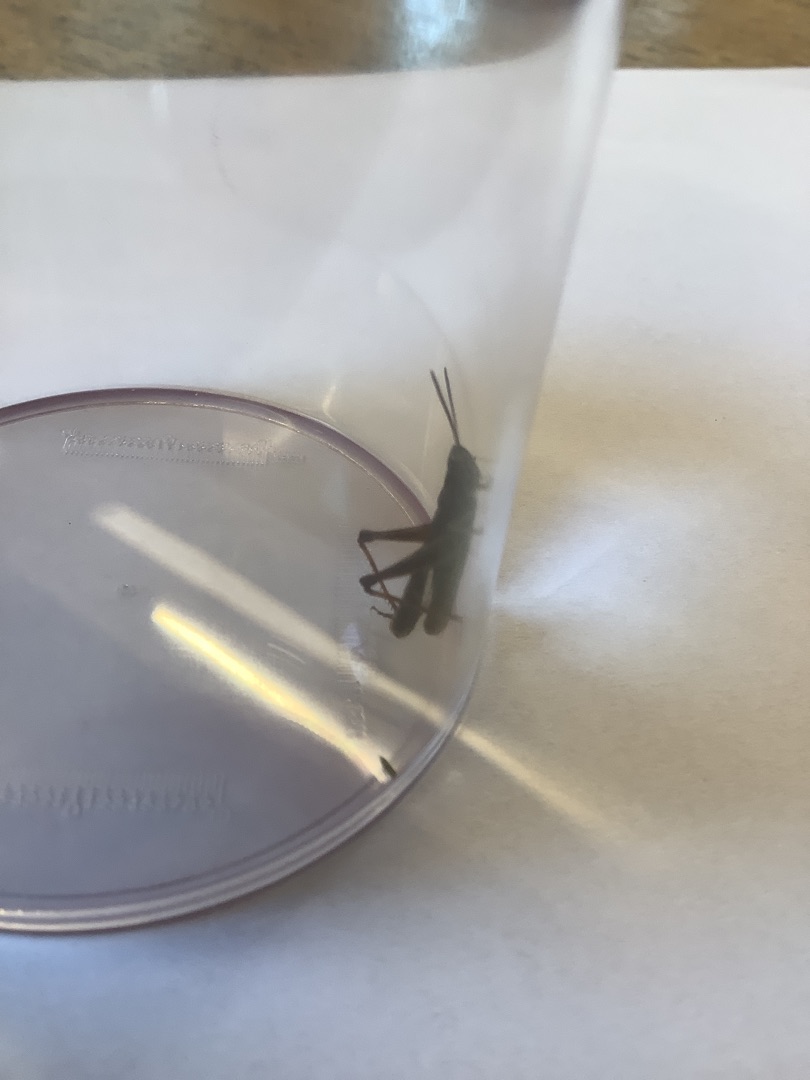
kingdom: Animalia
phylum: Arthropoda
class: Insecta
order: Orthoptera
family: Acrididae
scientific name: Acrididae
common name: Markgræshopper
